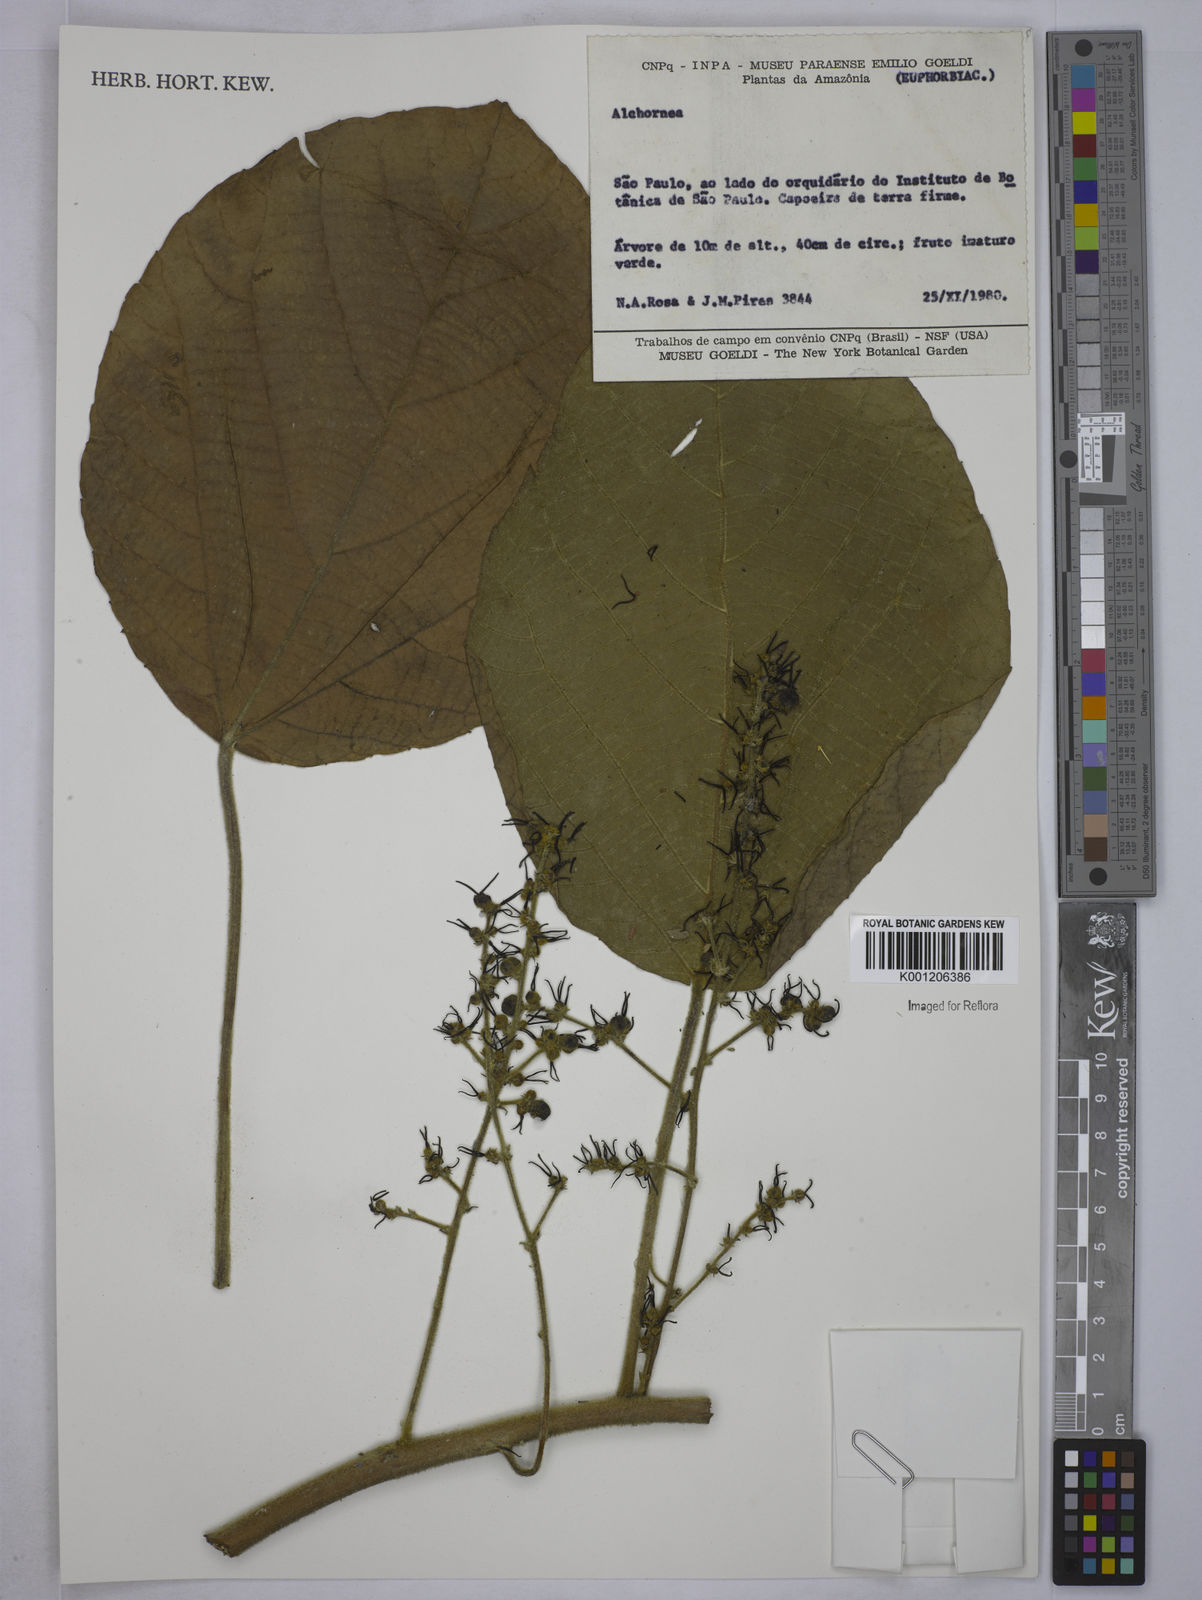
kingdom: Plantae
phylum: Tracheophyta
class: Magnoliopsida
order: Malpighiales
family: Euphorbiaceae
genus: Alchornea
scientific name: Alchornea
